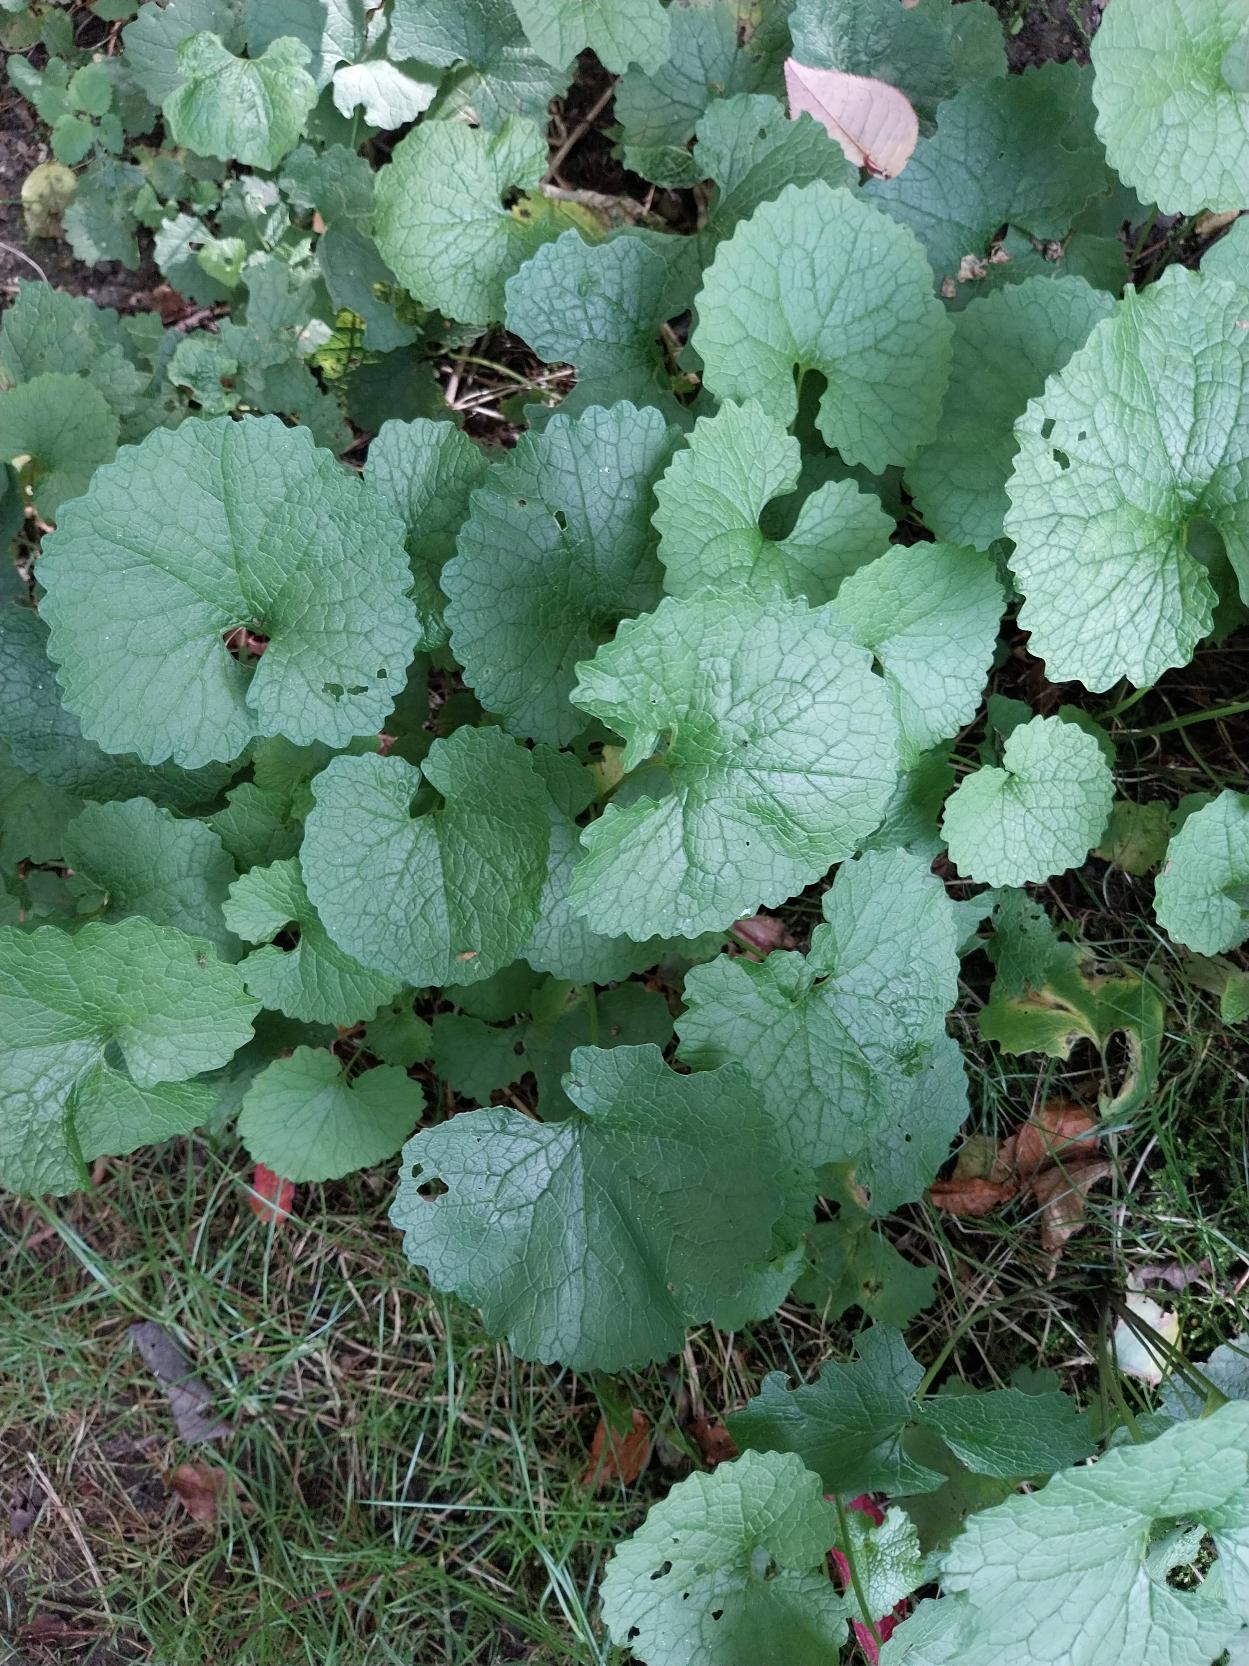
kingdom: Plantae
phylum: Tracheophyta
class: Magnoliopsida
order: Brassicales
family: Brassicaceae
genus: Alliaria
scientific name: Alliaria petiolata
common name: Løgkarse
